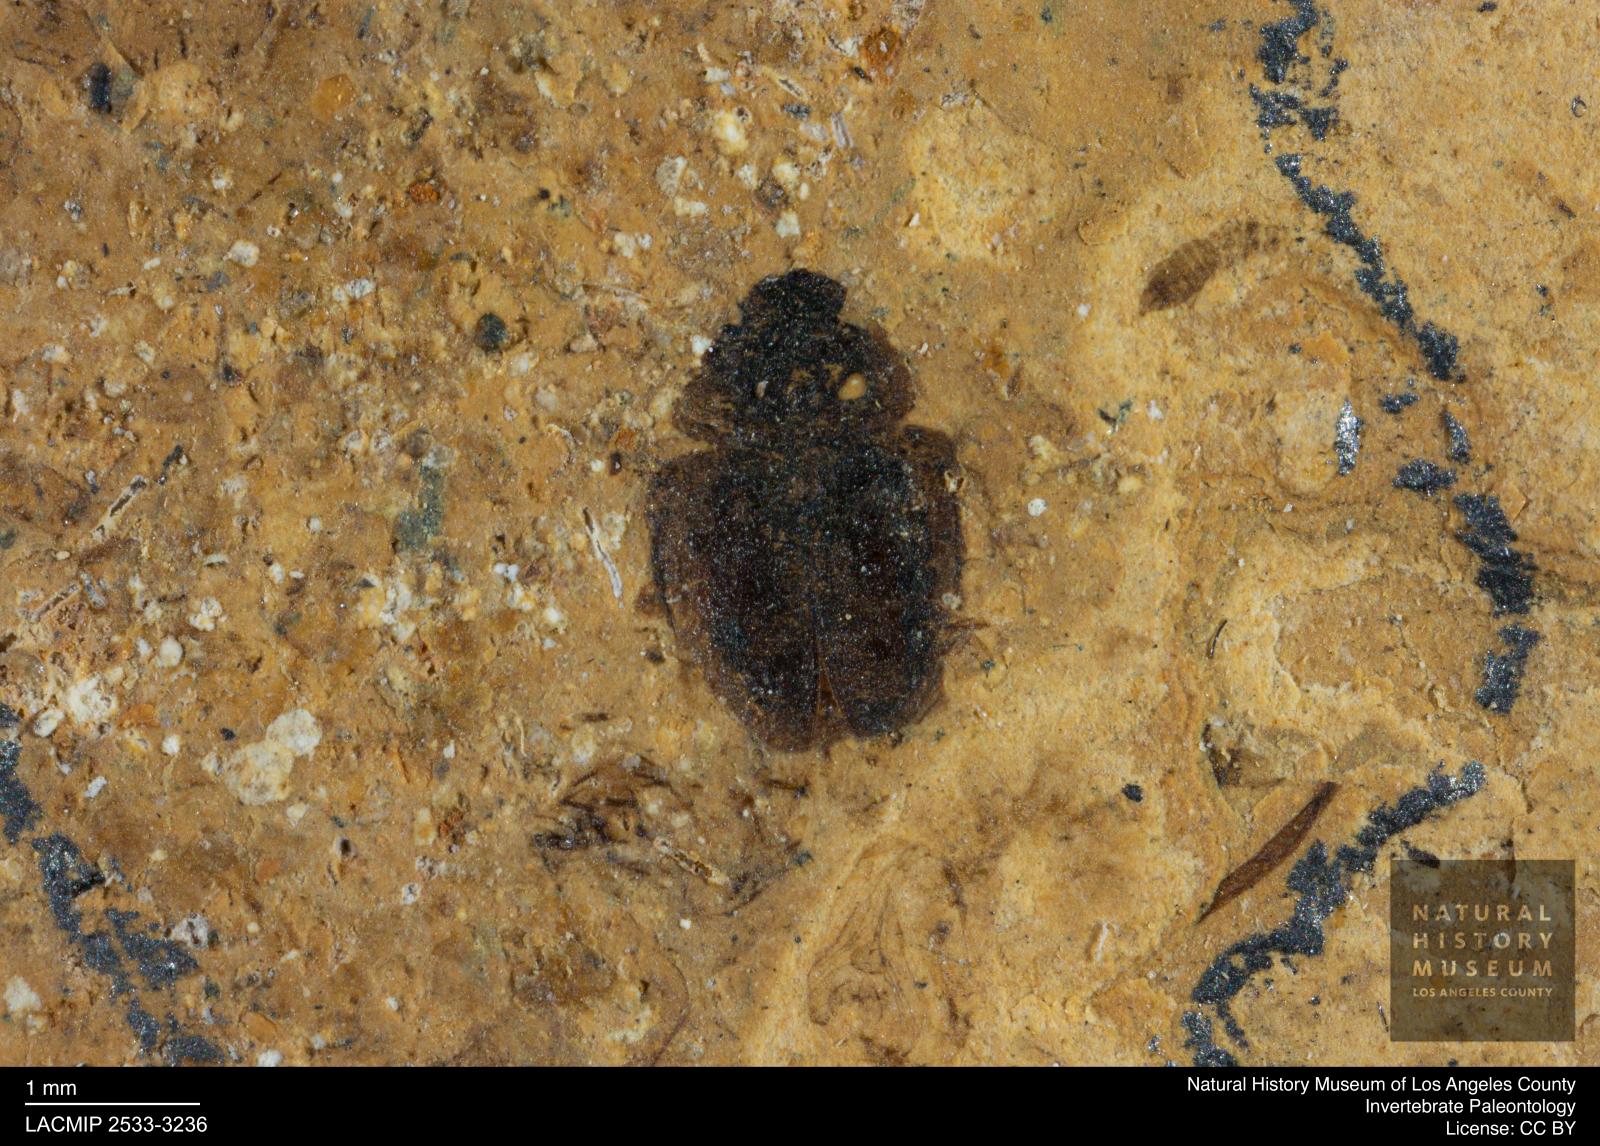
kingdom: Animalia
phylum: Arthropoda
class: Insecta
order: Coleoptera
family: Hydrophilidae
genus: Paracymus
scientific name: Paracymus excitatus
